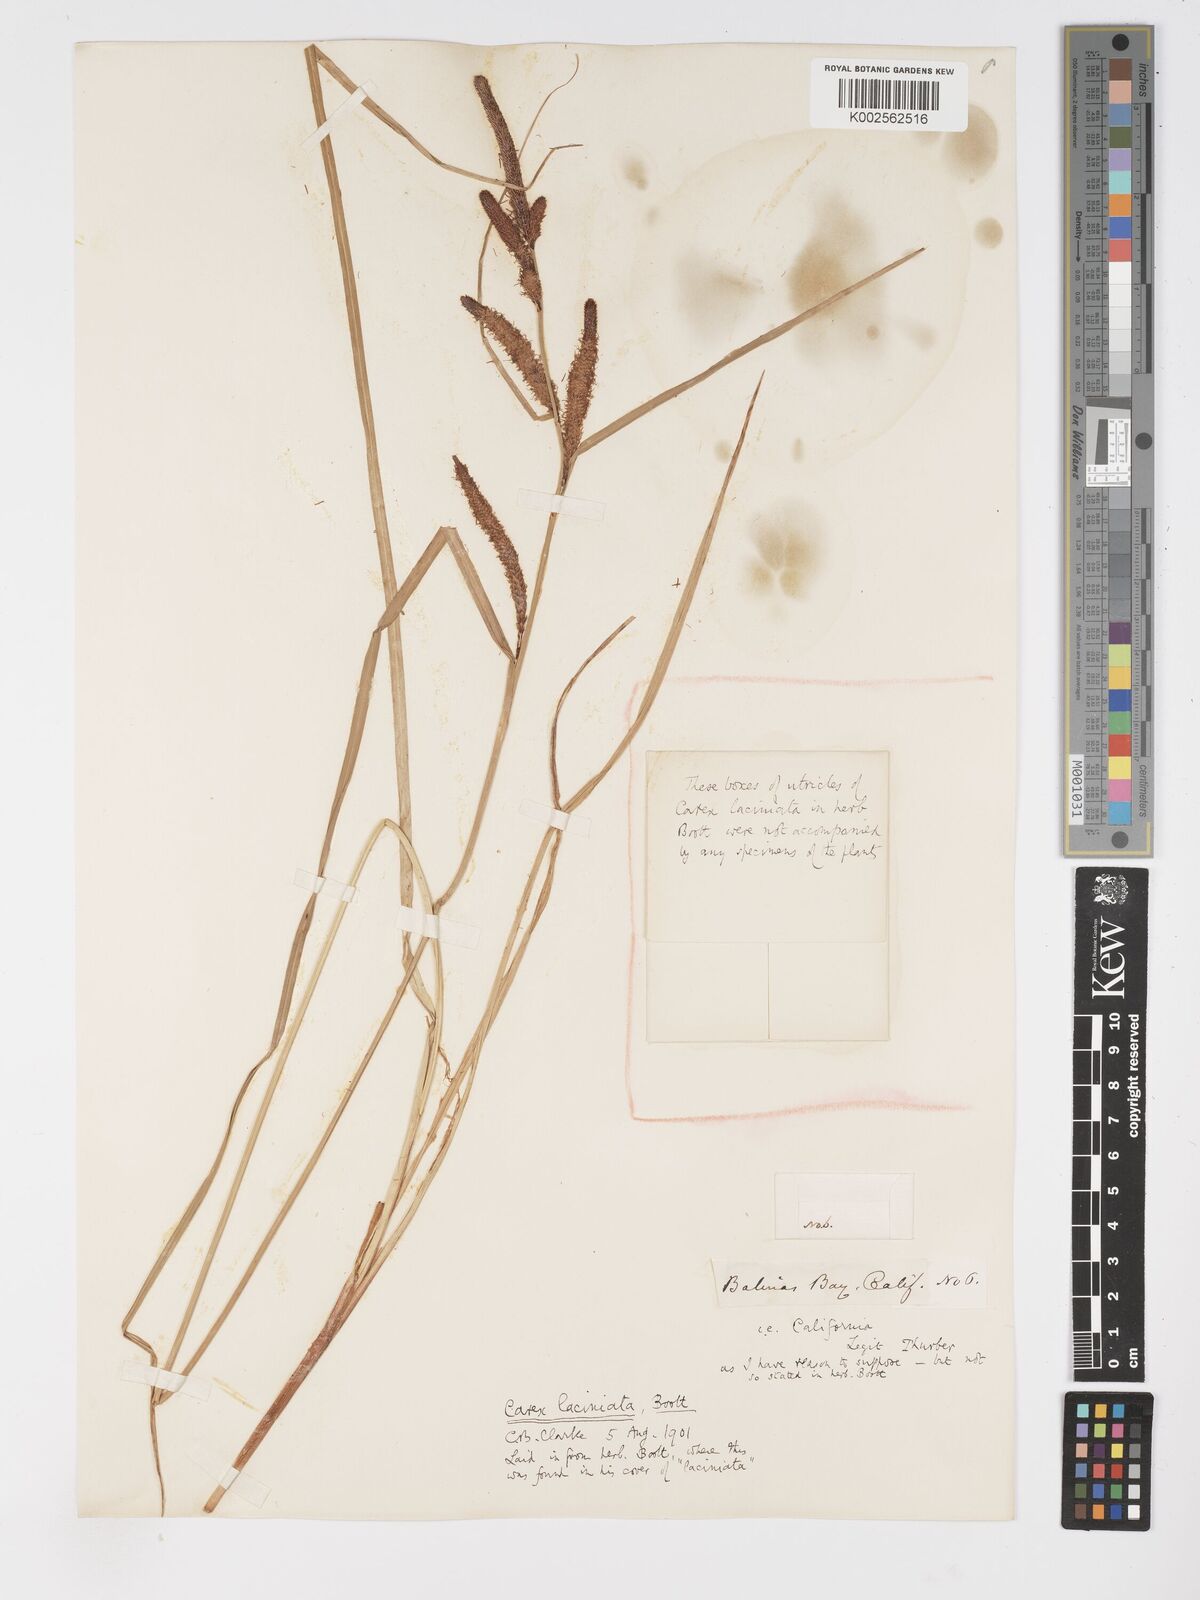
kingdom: Plantae
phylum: Tracheophyta
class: Liliopsida
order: Poales
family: Cyperaceae
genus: Carex
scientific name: Carex barbarae
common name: Santa barbara sedge
